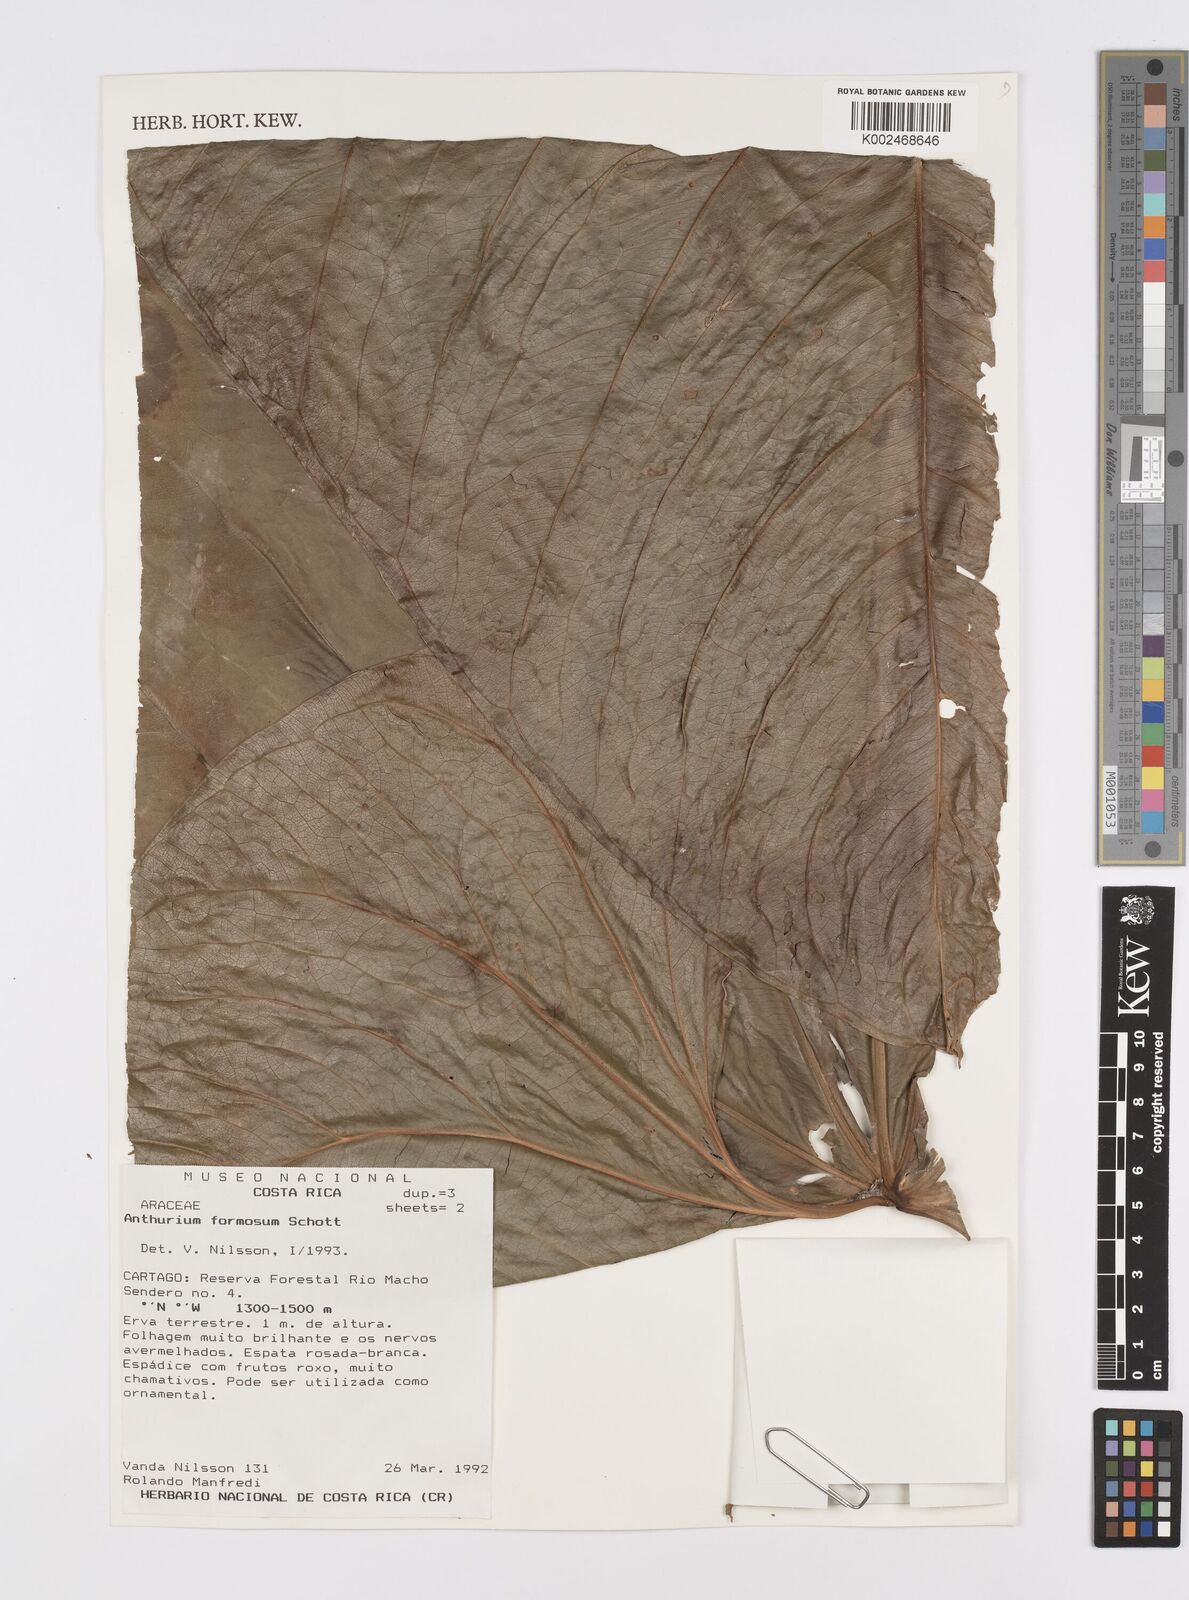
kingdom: Plantae
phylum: Tracheophyta
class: Liliopsida
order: Alismatales
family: Araceae
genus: Anthurium
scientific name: Anthurium formosum
